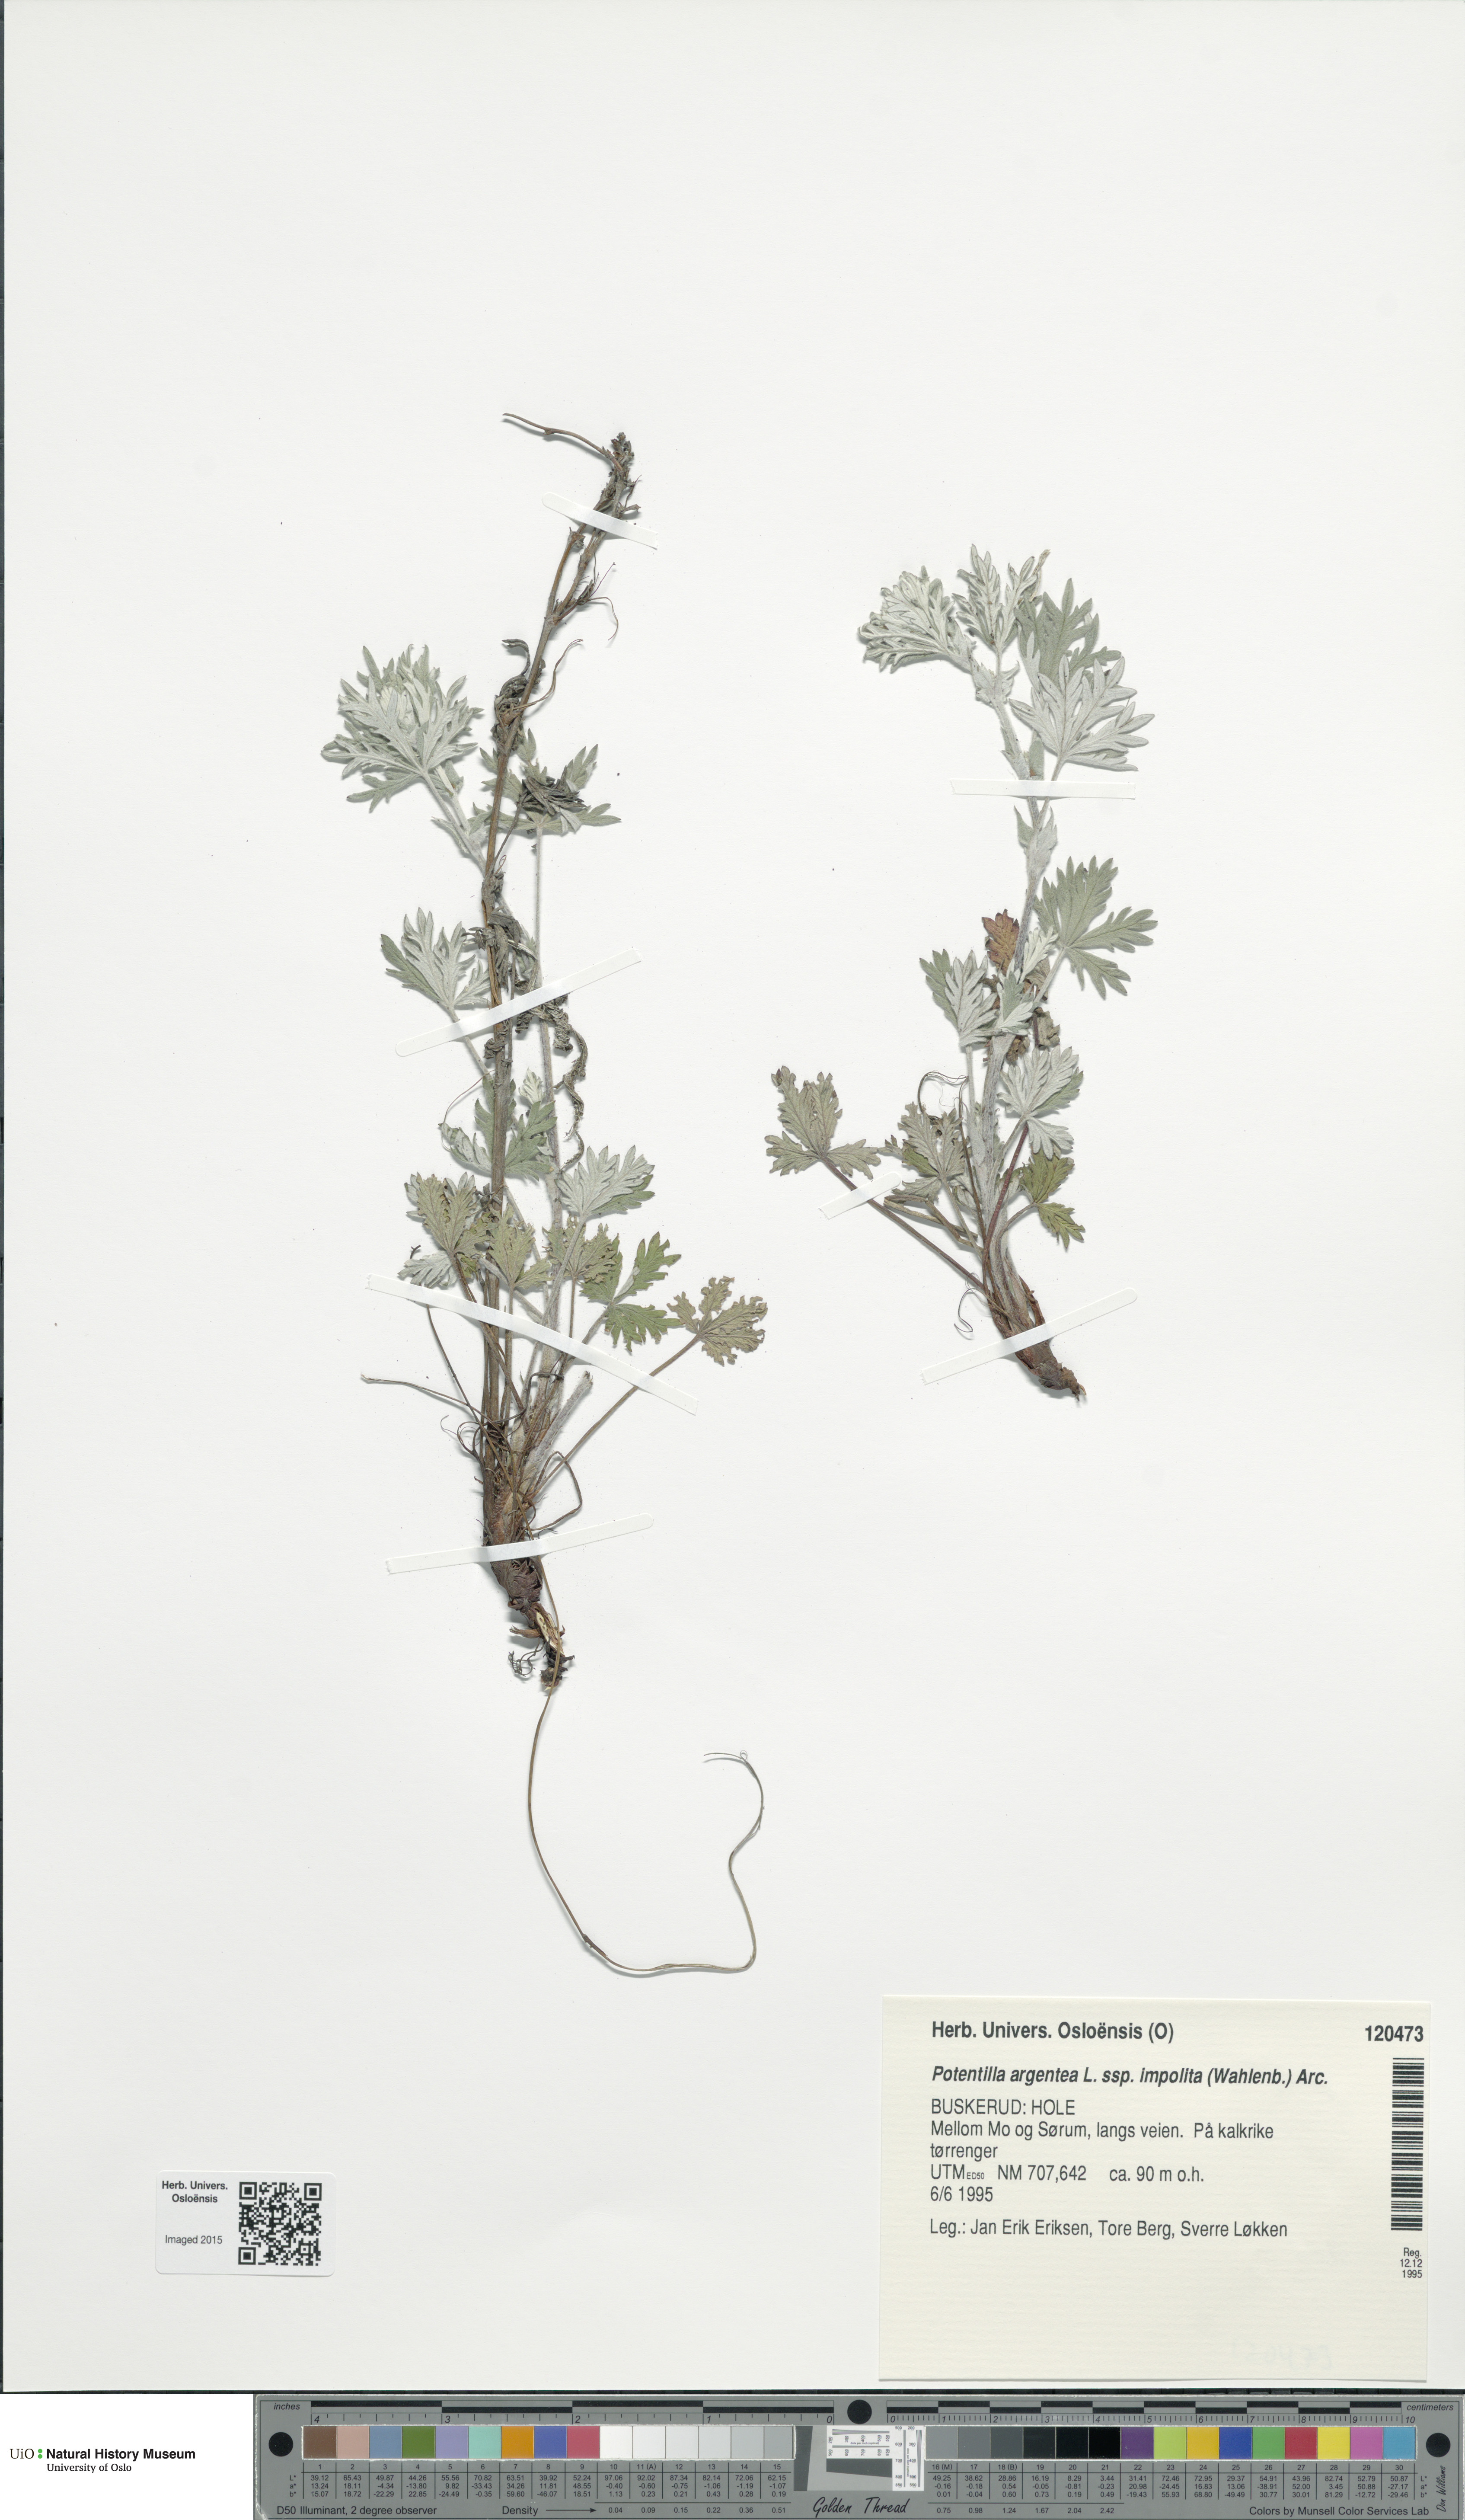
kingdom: Plantae
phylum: Tracheophyta
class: Magnoliopsida
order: Rosales
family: Rosaceae
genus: Potentilla
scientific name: Potentilla neglecta
